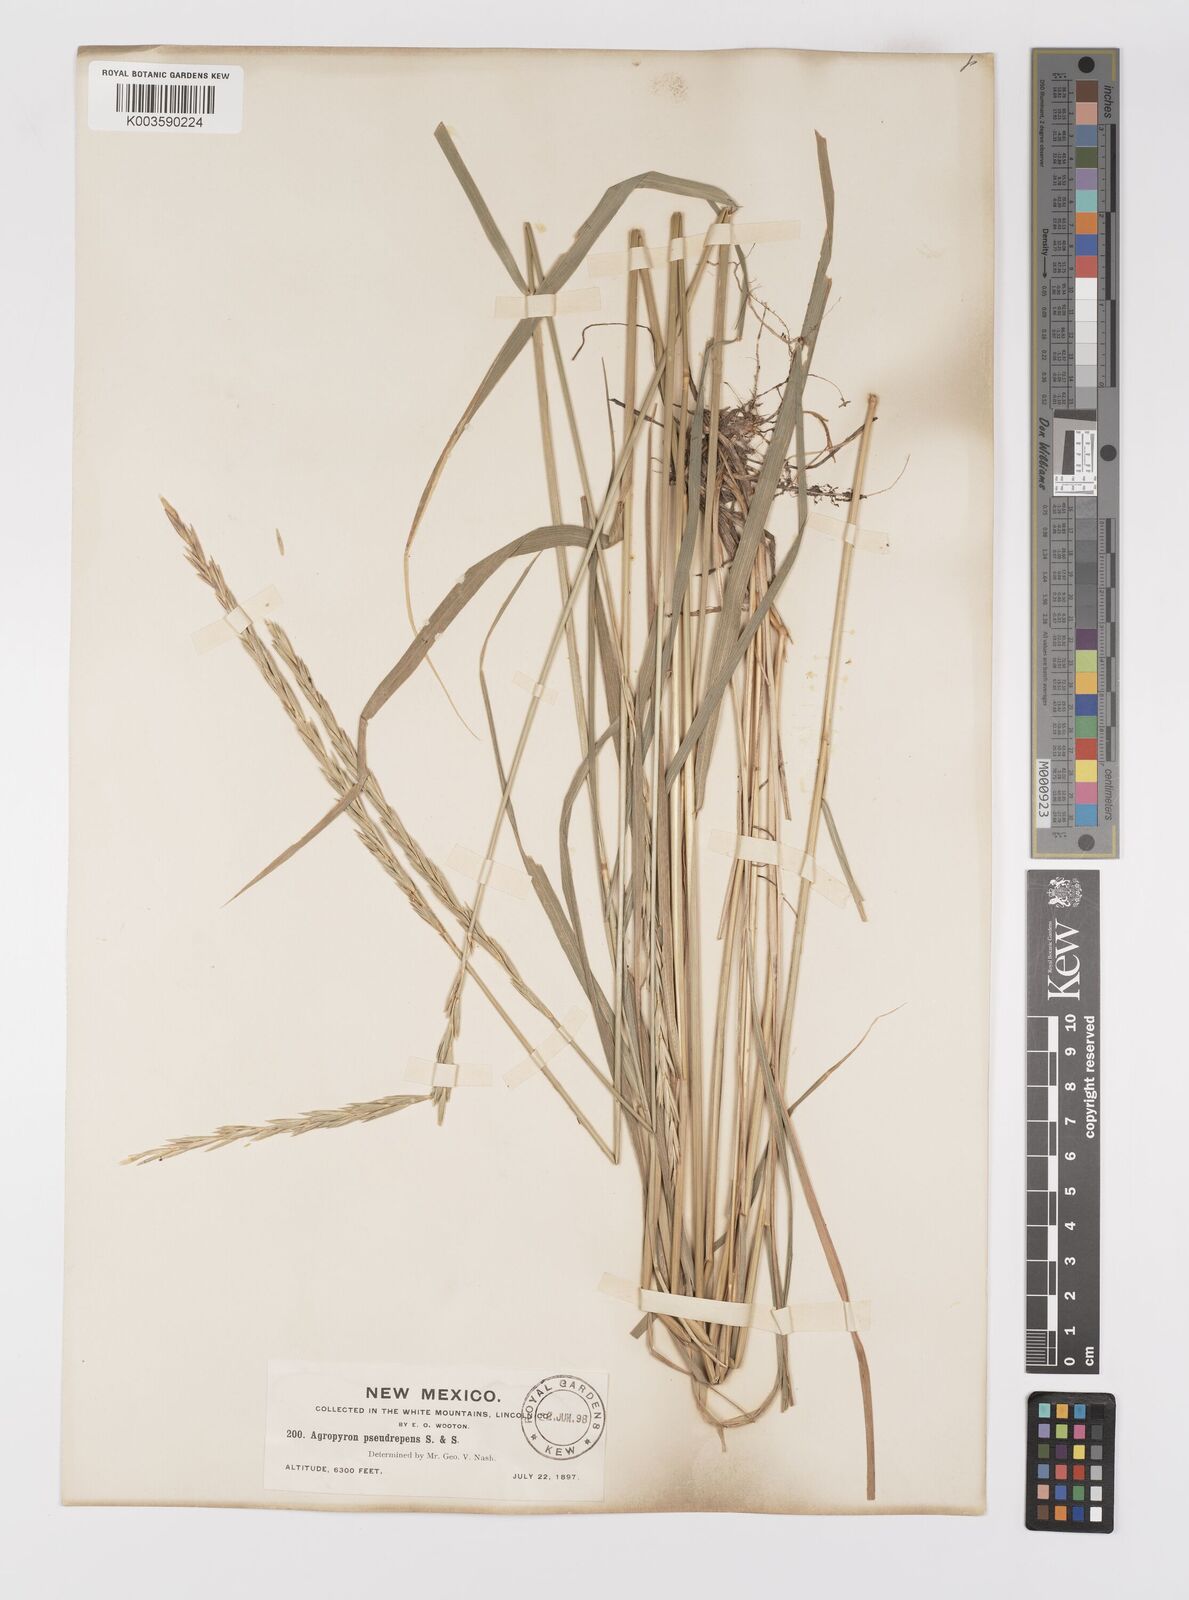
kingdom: Plantae
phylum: Tracheophyta
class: Liliopsida
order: Poales
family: Poaceae
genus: Elymus
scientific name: Elymus violaceus
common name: Arctic wheatgrass
